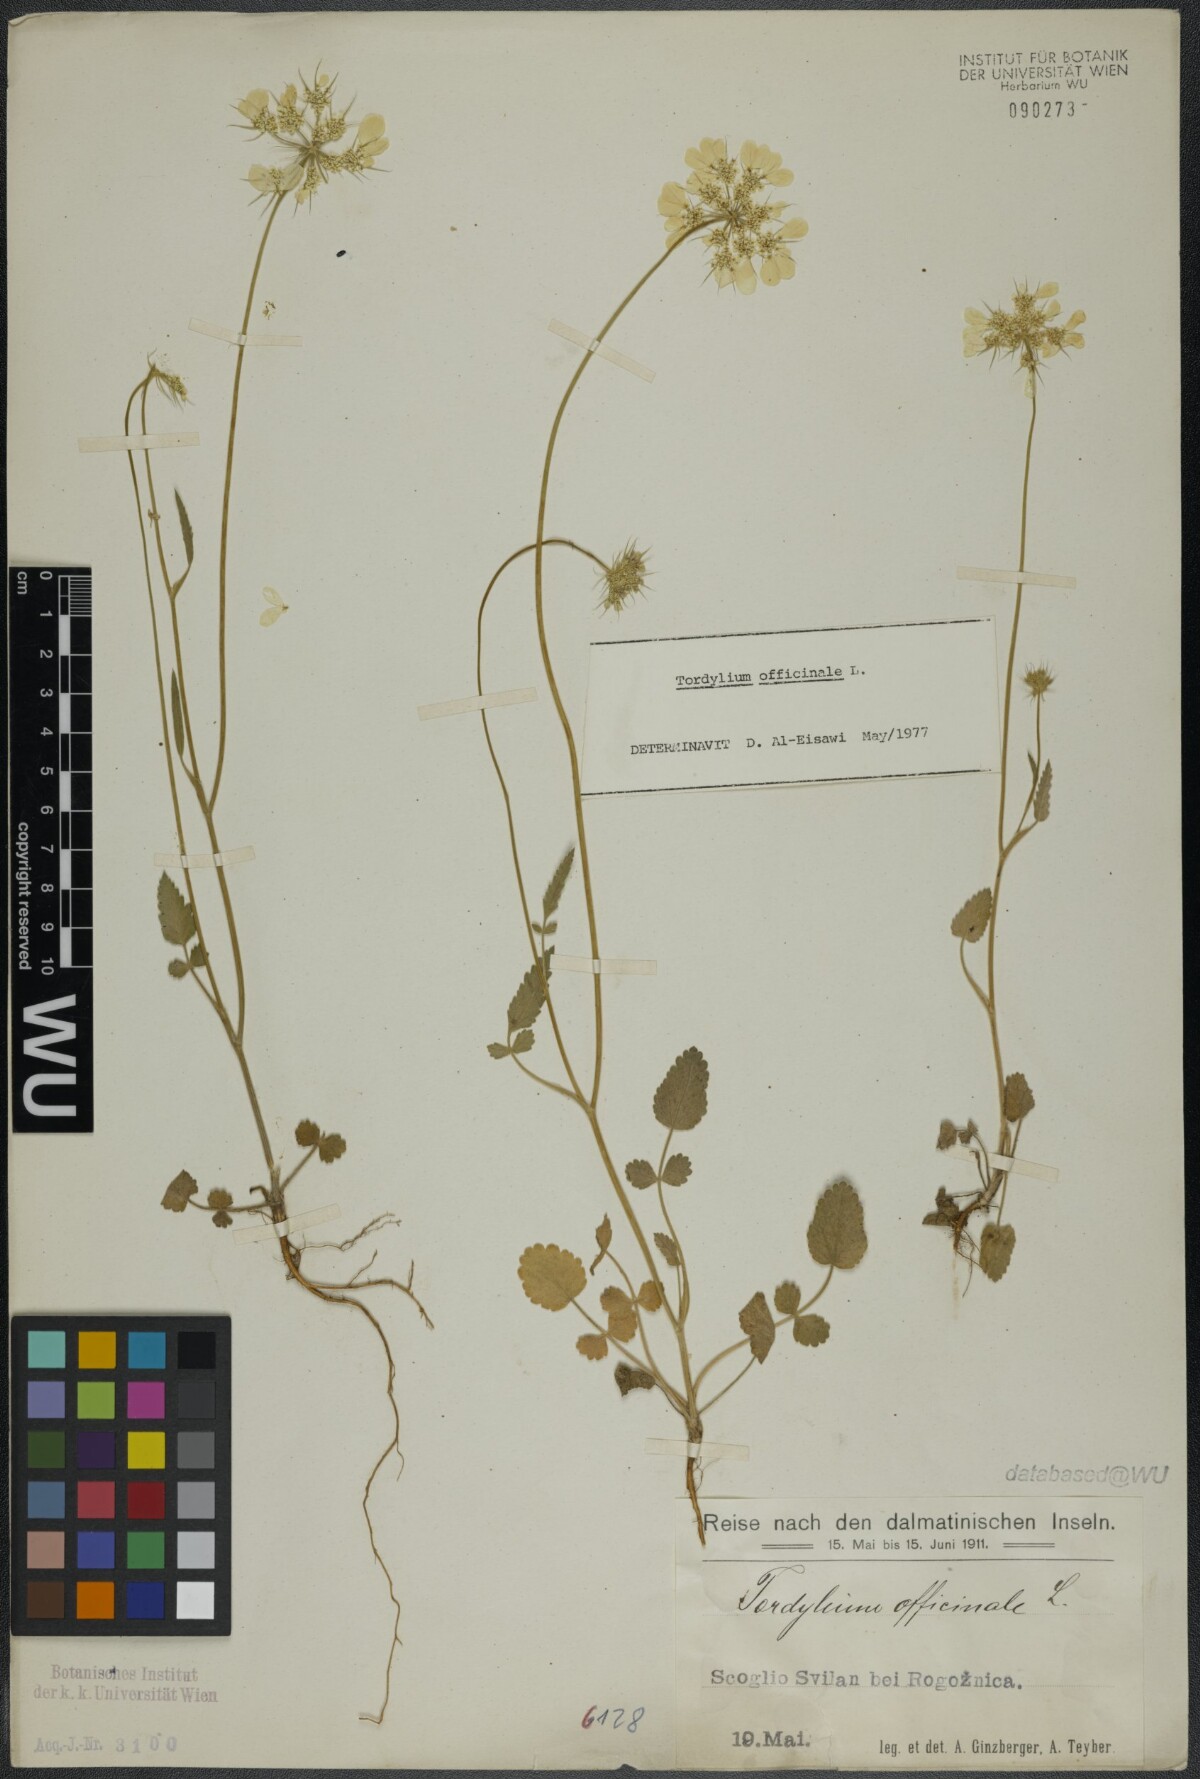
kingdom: Plantae
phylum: Tracheophyta
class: Magnoliopsida
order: Apiales
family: Apiaceae
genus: Tordylium
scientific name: Tordylium officinale
